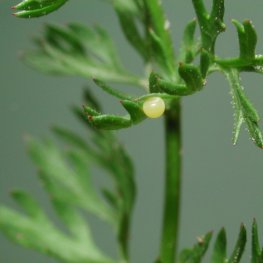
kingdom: Animalia
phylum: Arthropoda
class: Insecta
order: Lepidoptera
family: Papilionidae
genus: Papilio
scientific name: Papilio polyxenes
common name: Black Swallowtail
